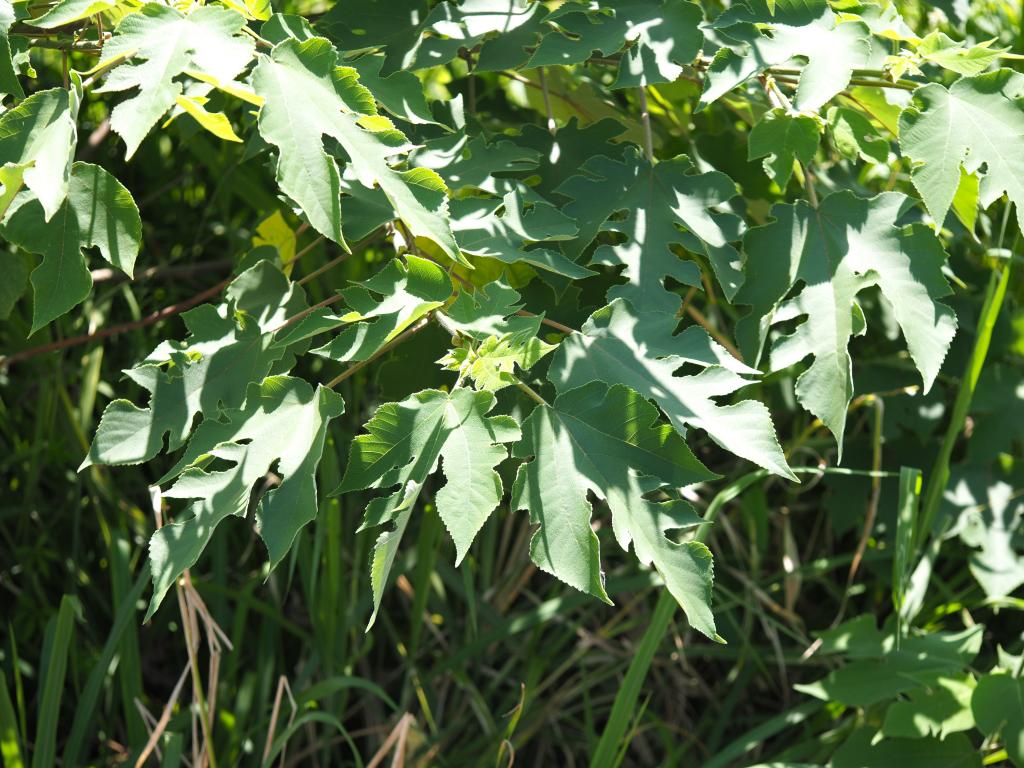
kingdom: Plantae
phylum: Tracheophyta
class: Magnoliopsida
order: Rosales
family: Moraceae
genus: Broussonetia
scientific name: Broussonetia papyrifera
